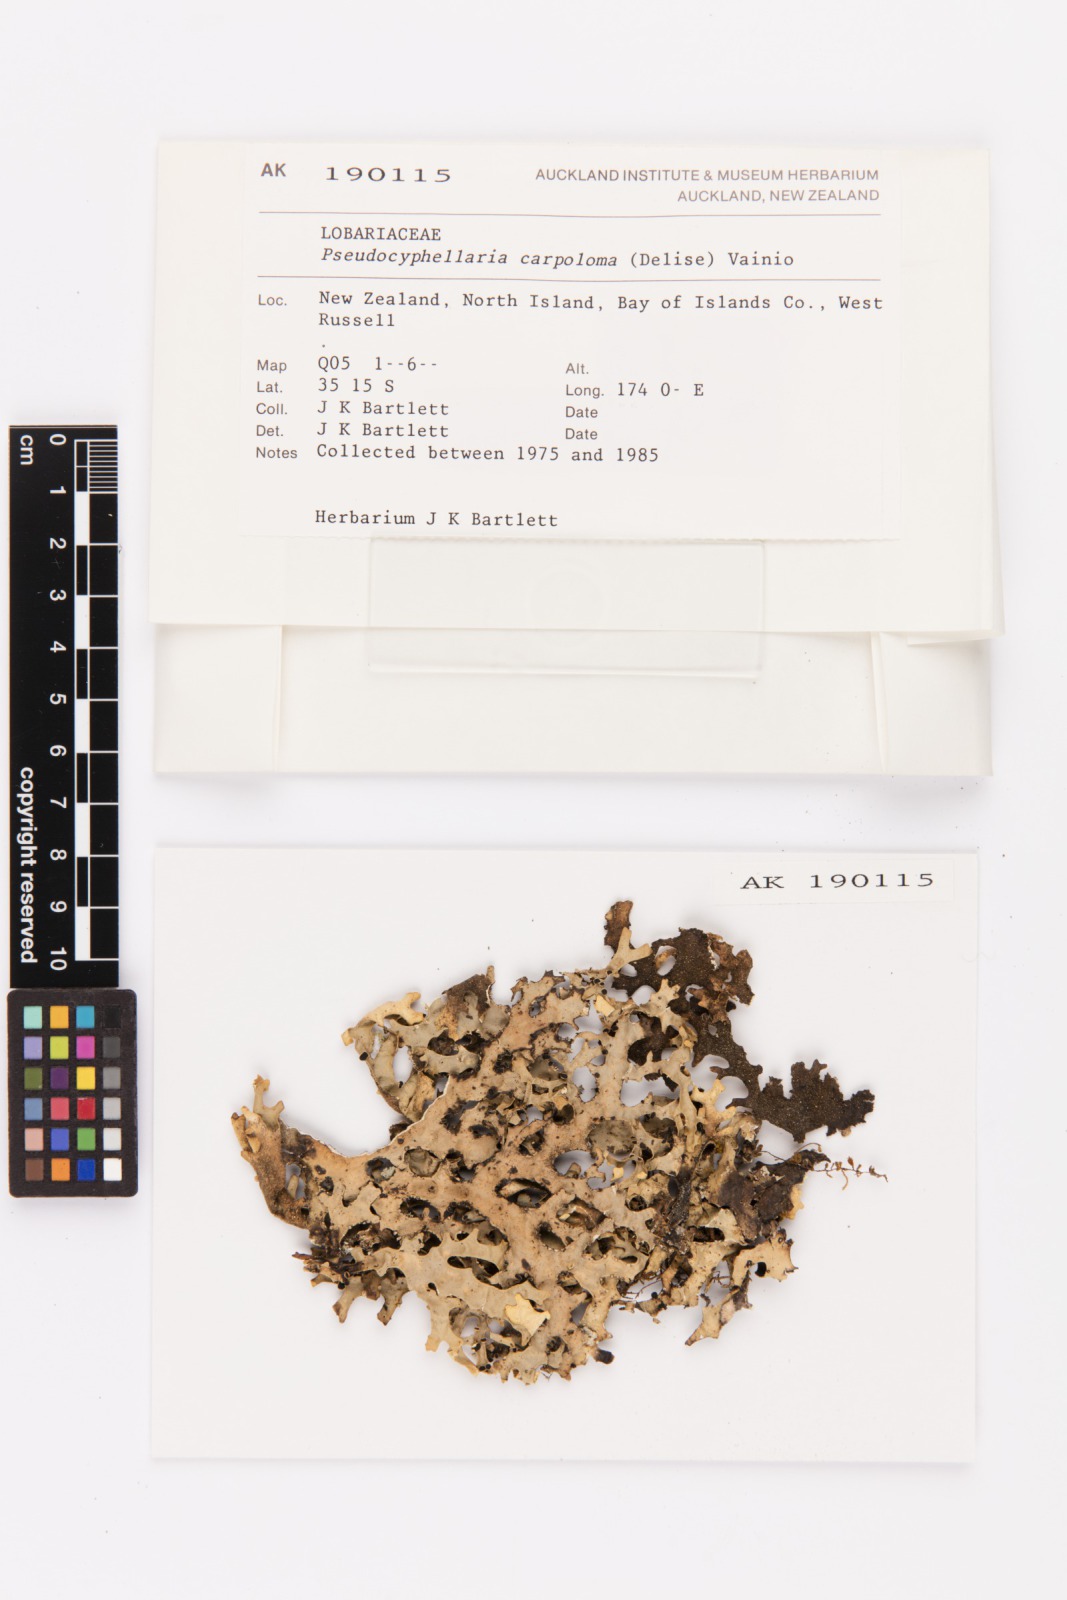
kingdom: Fungi
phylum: Ascomycota
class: Lecanoromycetes
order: Peltigerales
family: Lobariaceae
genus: Pseudocyphellaria
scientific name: Pseudocyphellaria carpoloma
